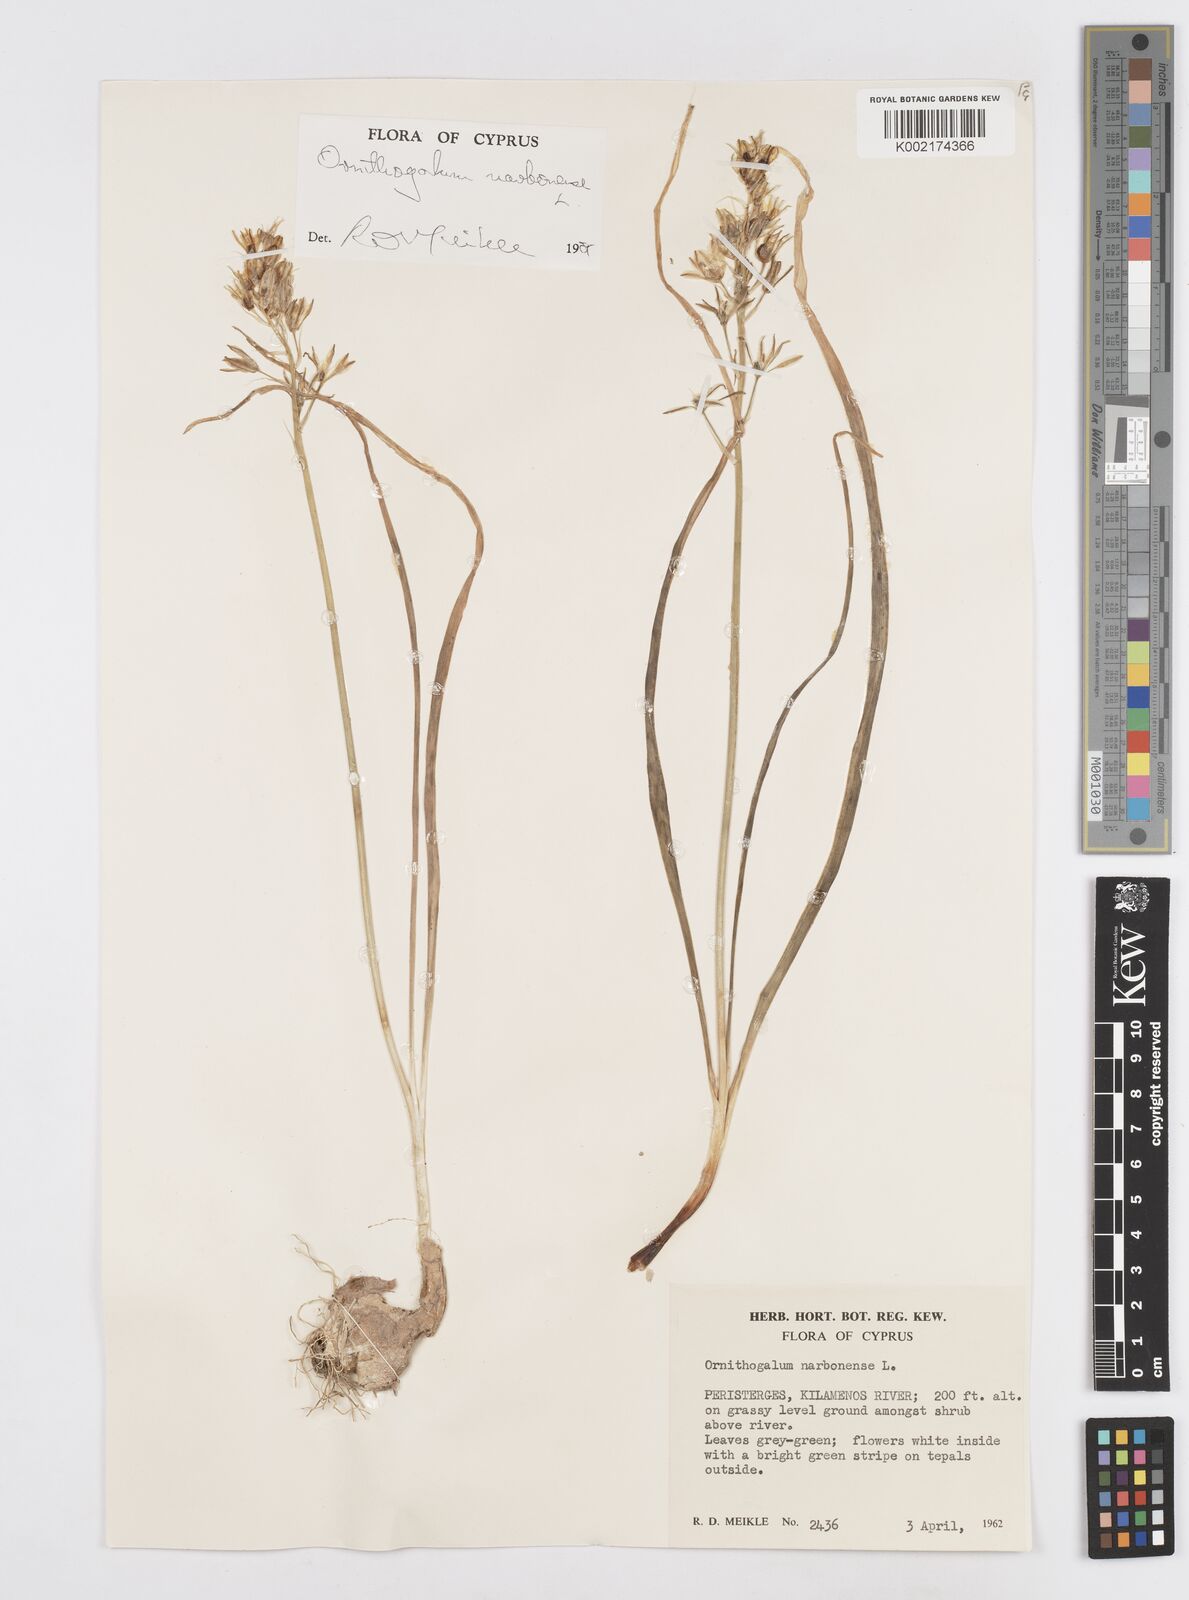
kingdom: Plantae
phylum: Tracheophyta
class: Liliopsida
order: Asparagales
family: Asparagaceae
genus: Ornithogalum
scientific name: Ornithogalum narbonense
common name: Bath-asparagus
